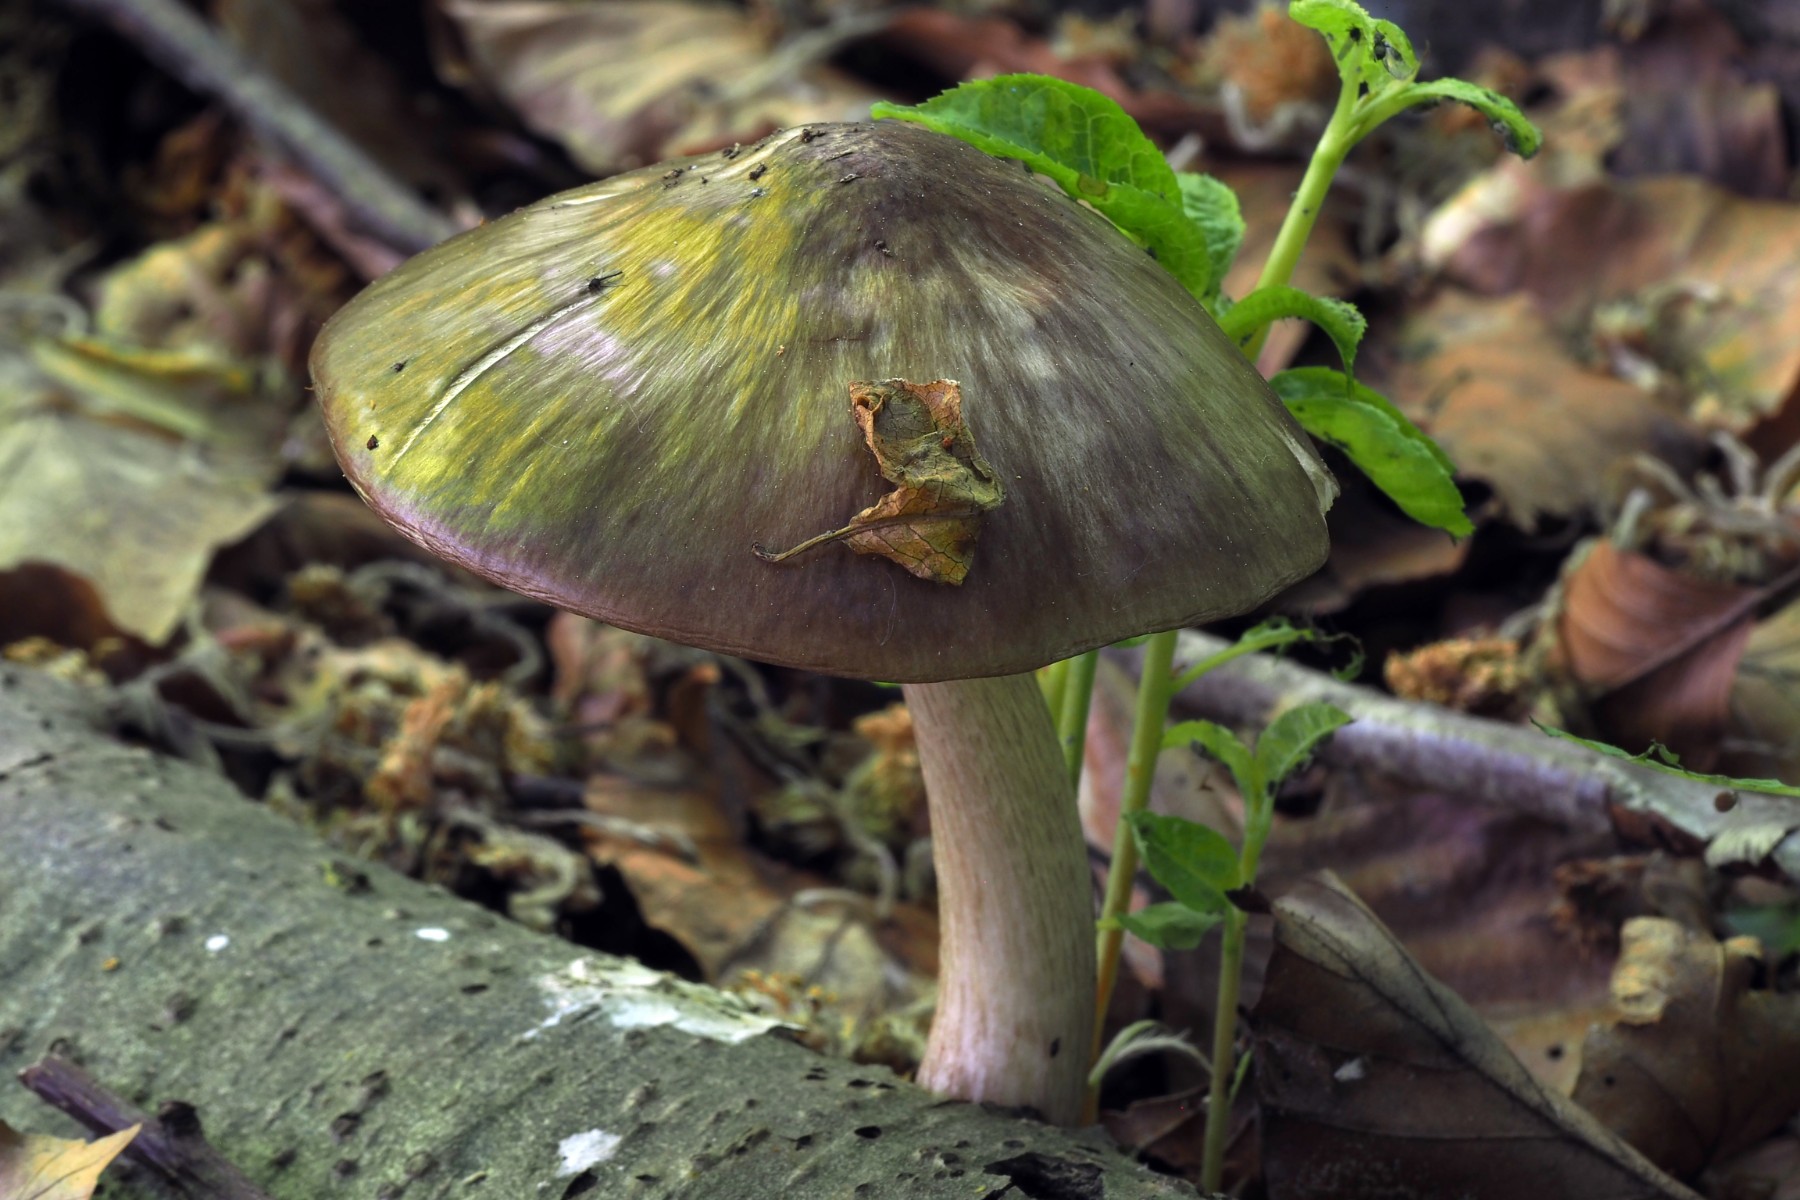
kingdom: Fungi
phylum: Basidiomycota
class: Agaricomycetes
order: Agaricales
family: Pluteaceae
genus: Pluteus
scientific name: Pluteus cervinus
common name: sodfarvet skærmhat
